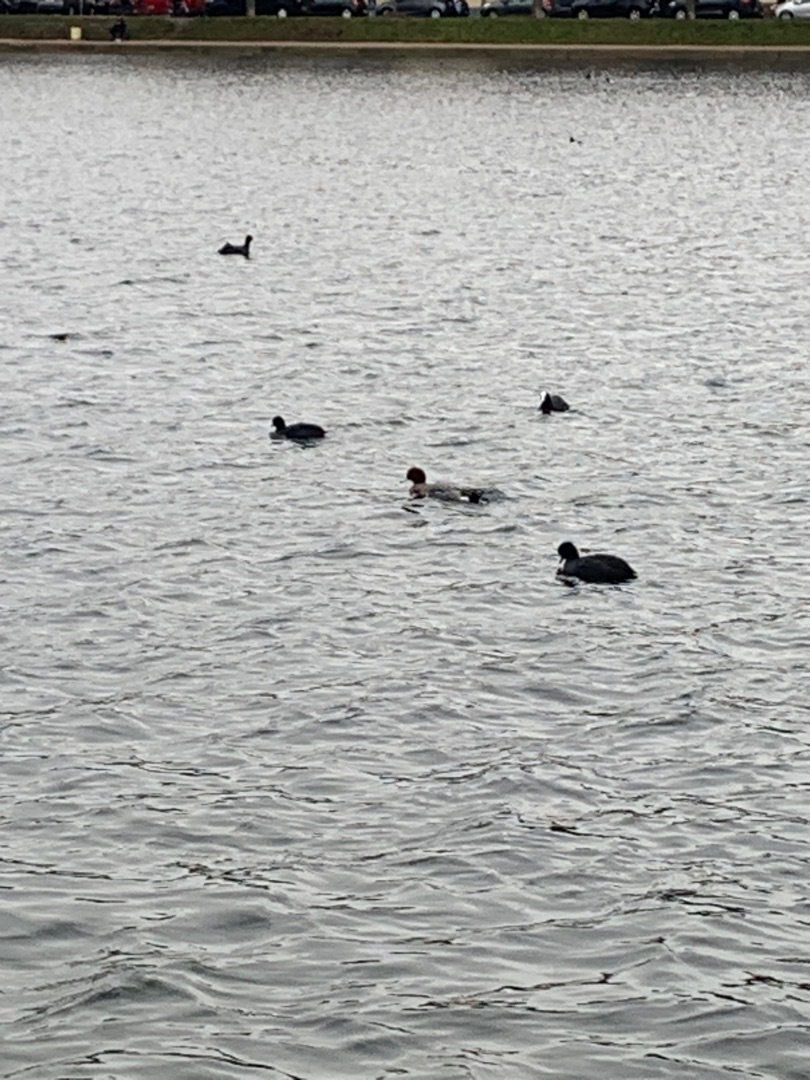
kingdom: Animalia
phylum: Chordata
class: Aves
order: Anseriformes
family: Anatidae
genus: Mareca
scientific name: Mareca penelope
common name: Pibeand
